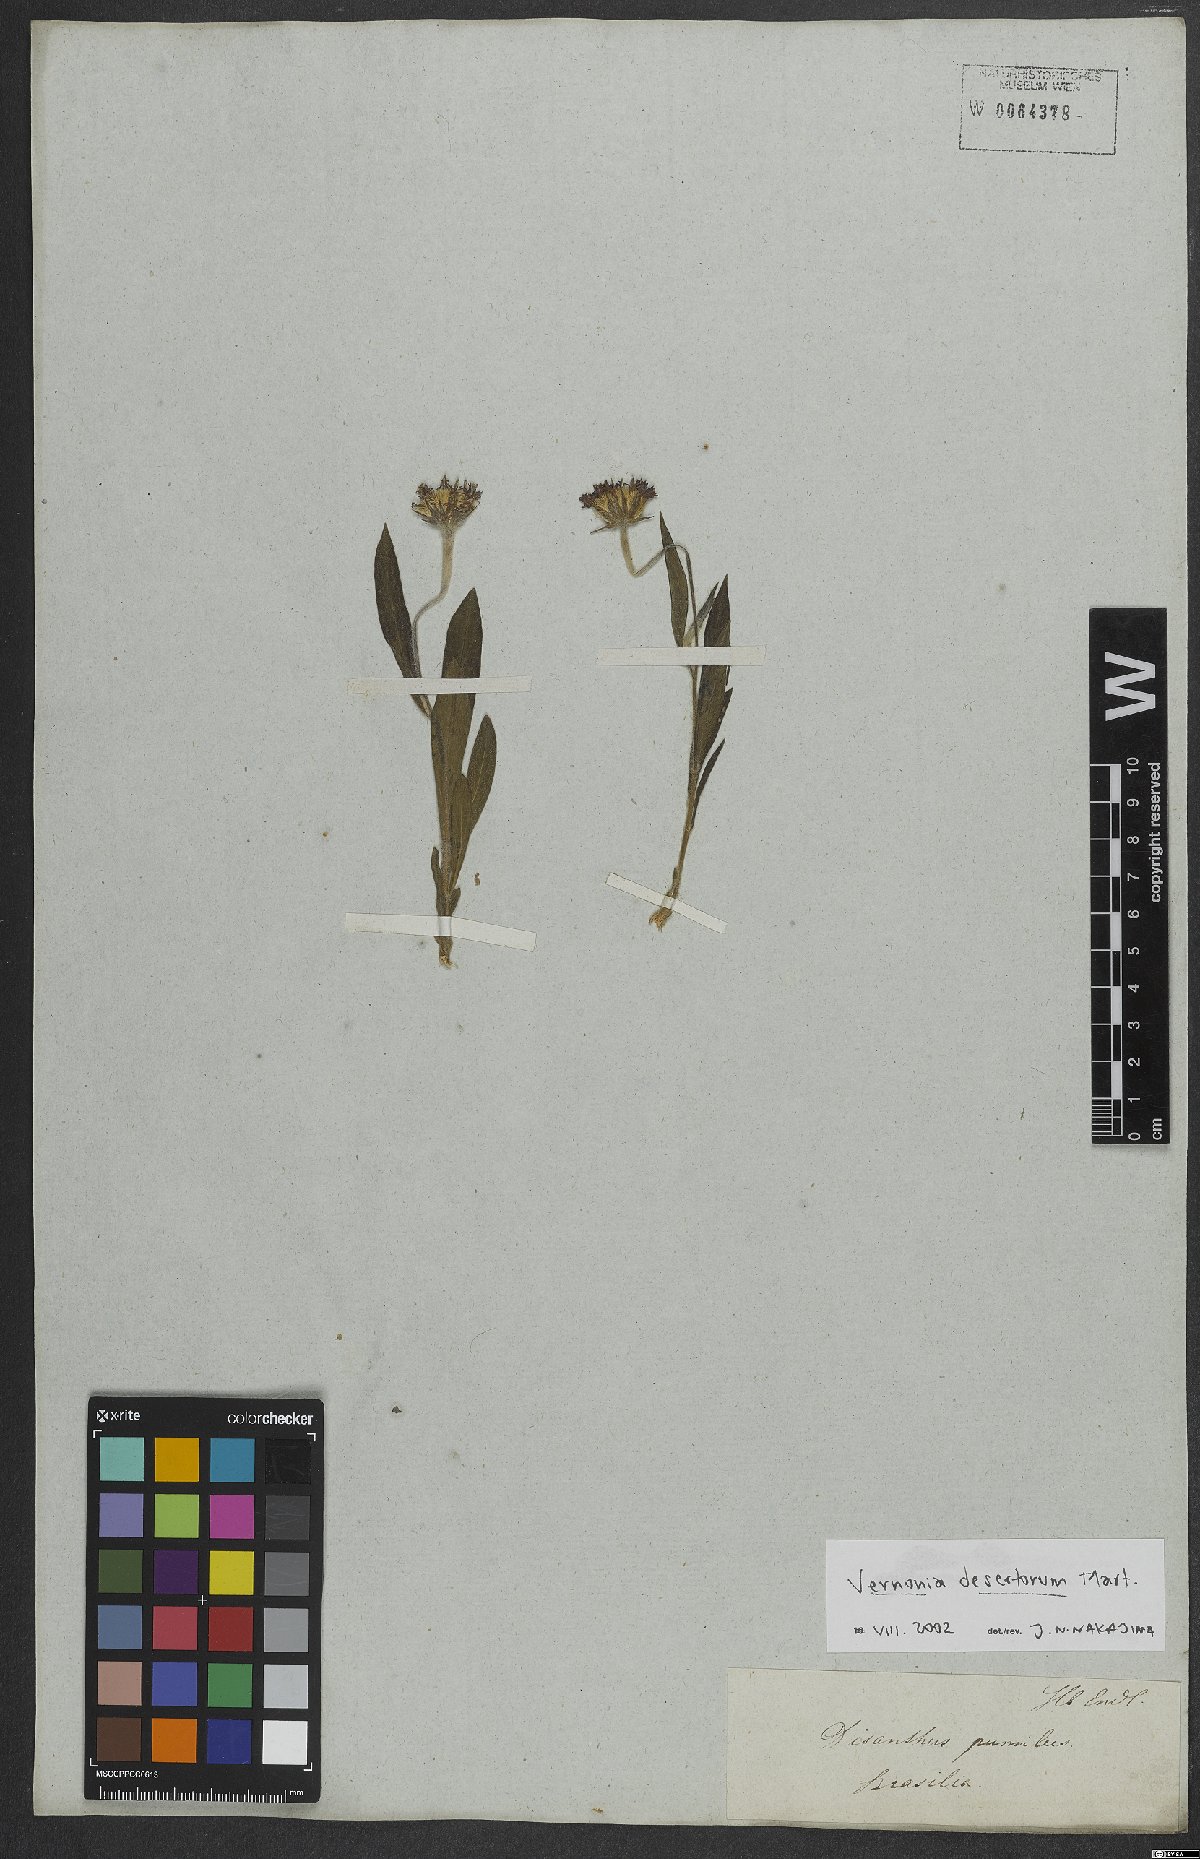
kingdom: Plantae
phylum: Tracheophyta
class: Magnoliopsida
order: Asterales
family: Asteraceae
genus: Chrysolaena
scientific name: Chrysolaena desertorum
